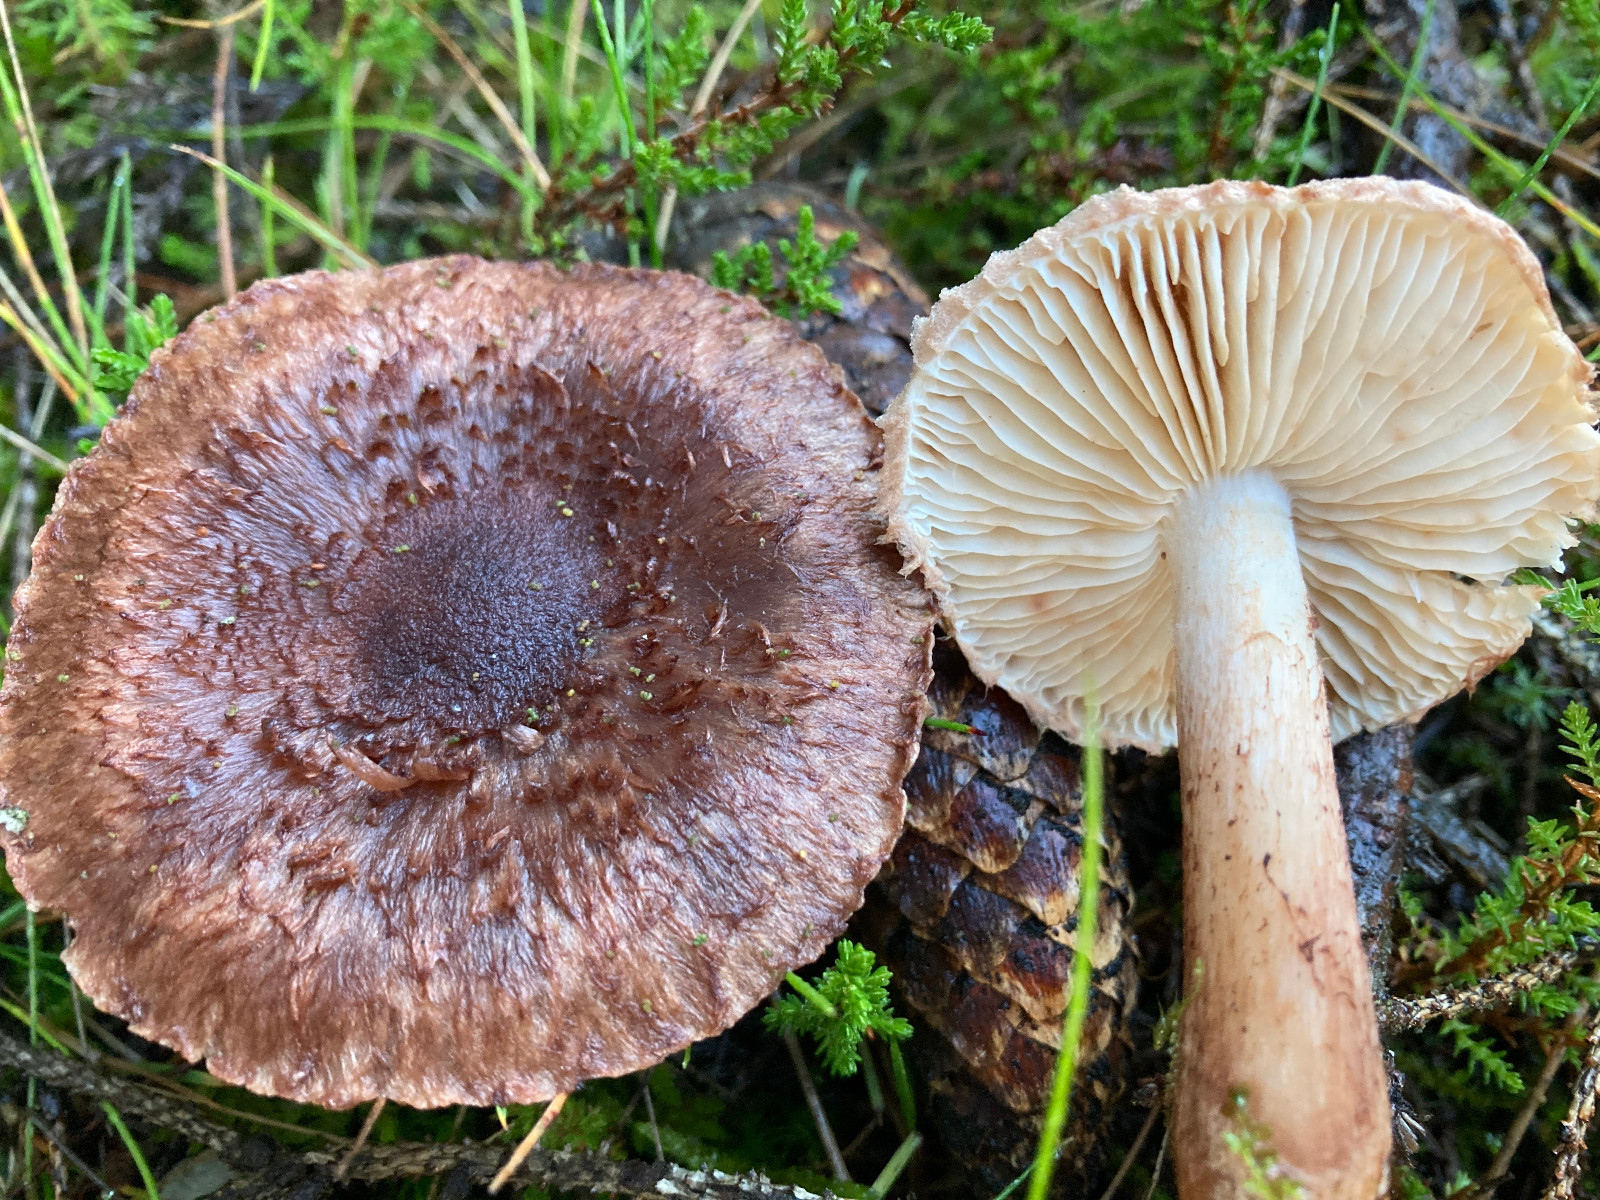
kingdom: Fungi
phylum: Basidiomycota
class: Agaricomycetes
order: Agaricales
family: Tricholomataceae
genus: Tricholoma
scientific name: Tricholoma vaccinum
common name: ko-ridderhat
